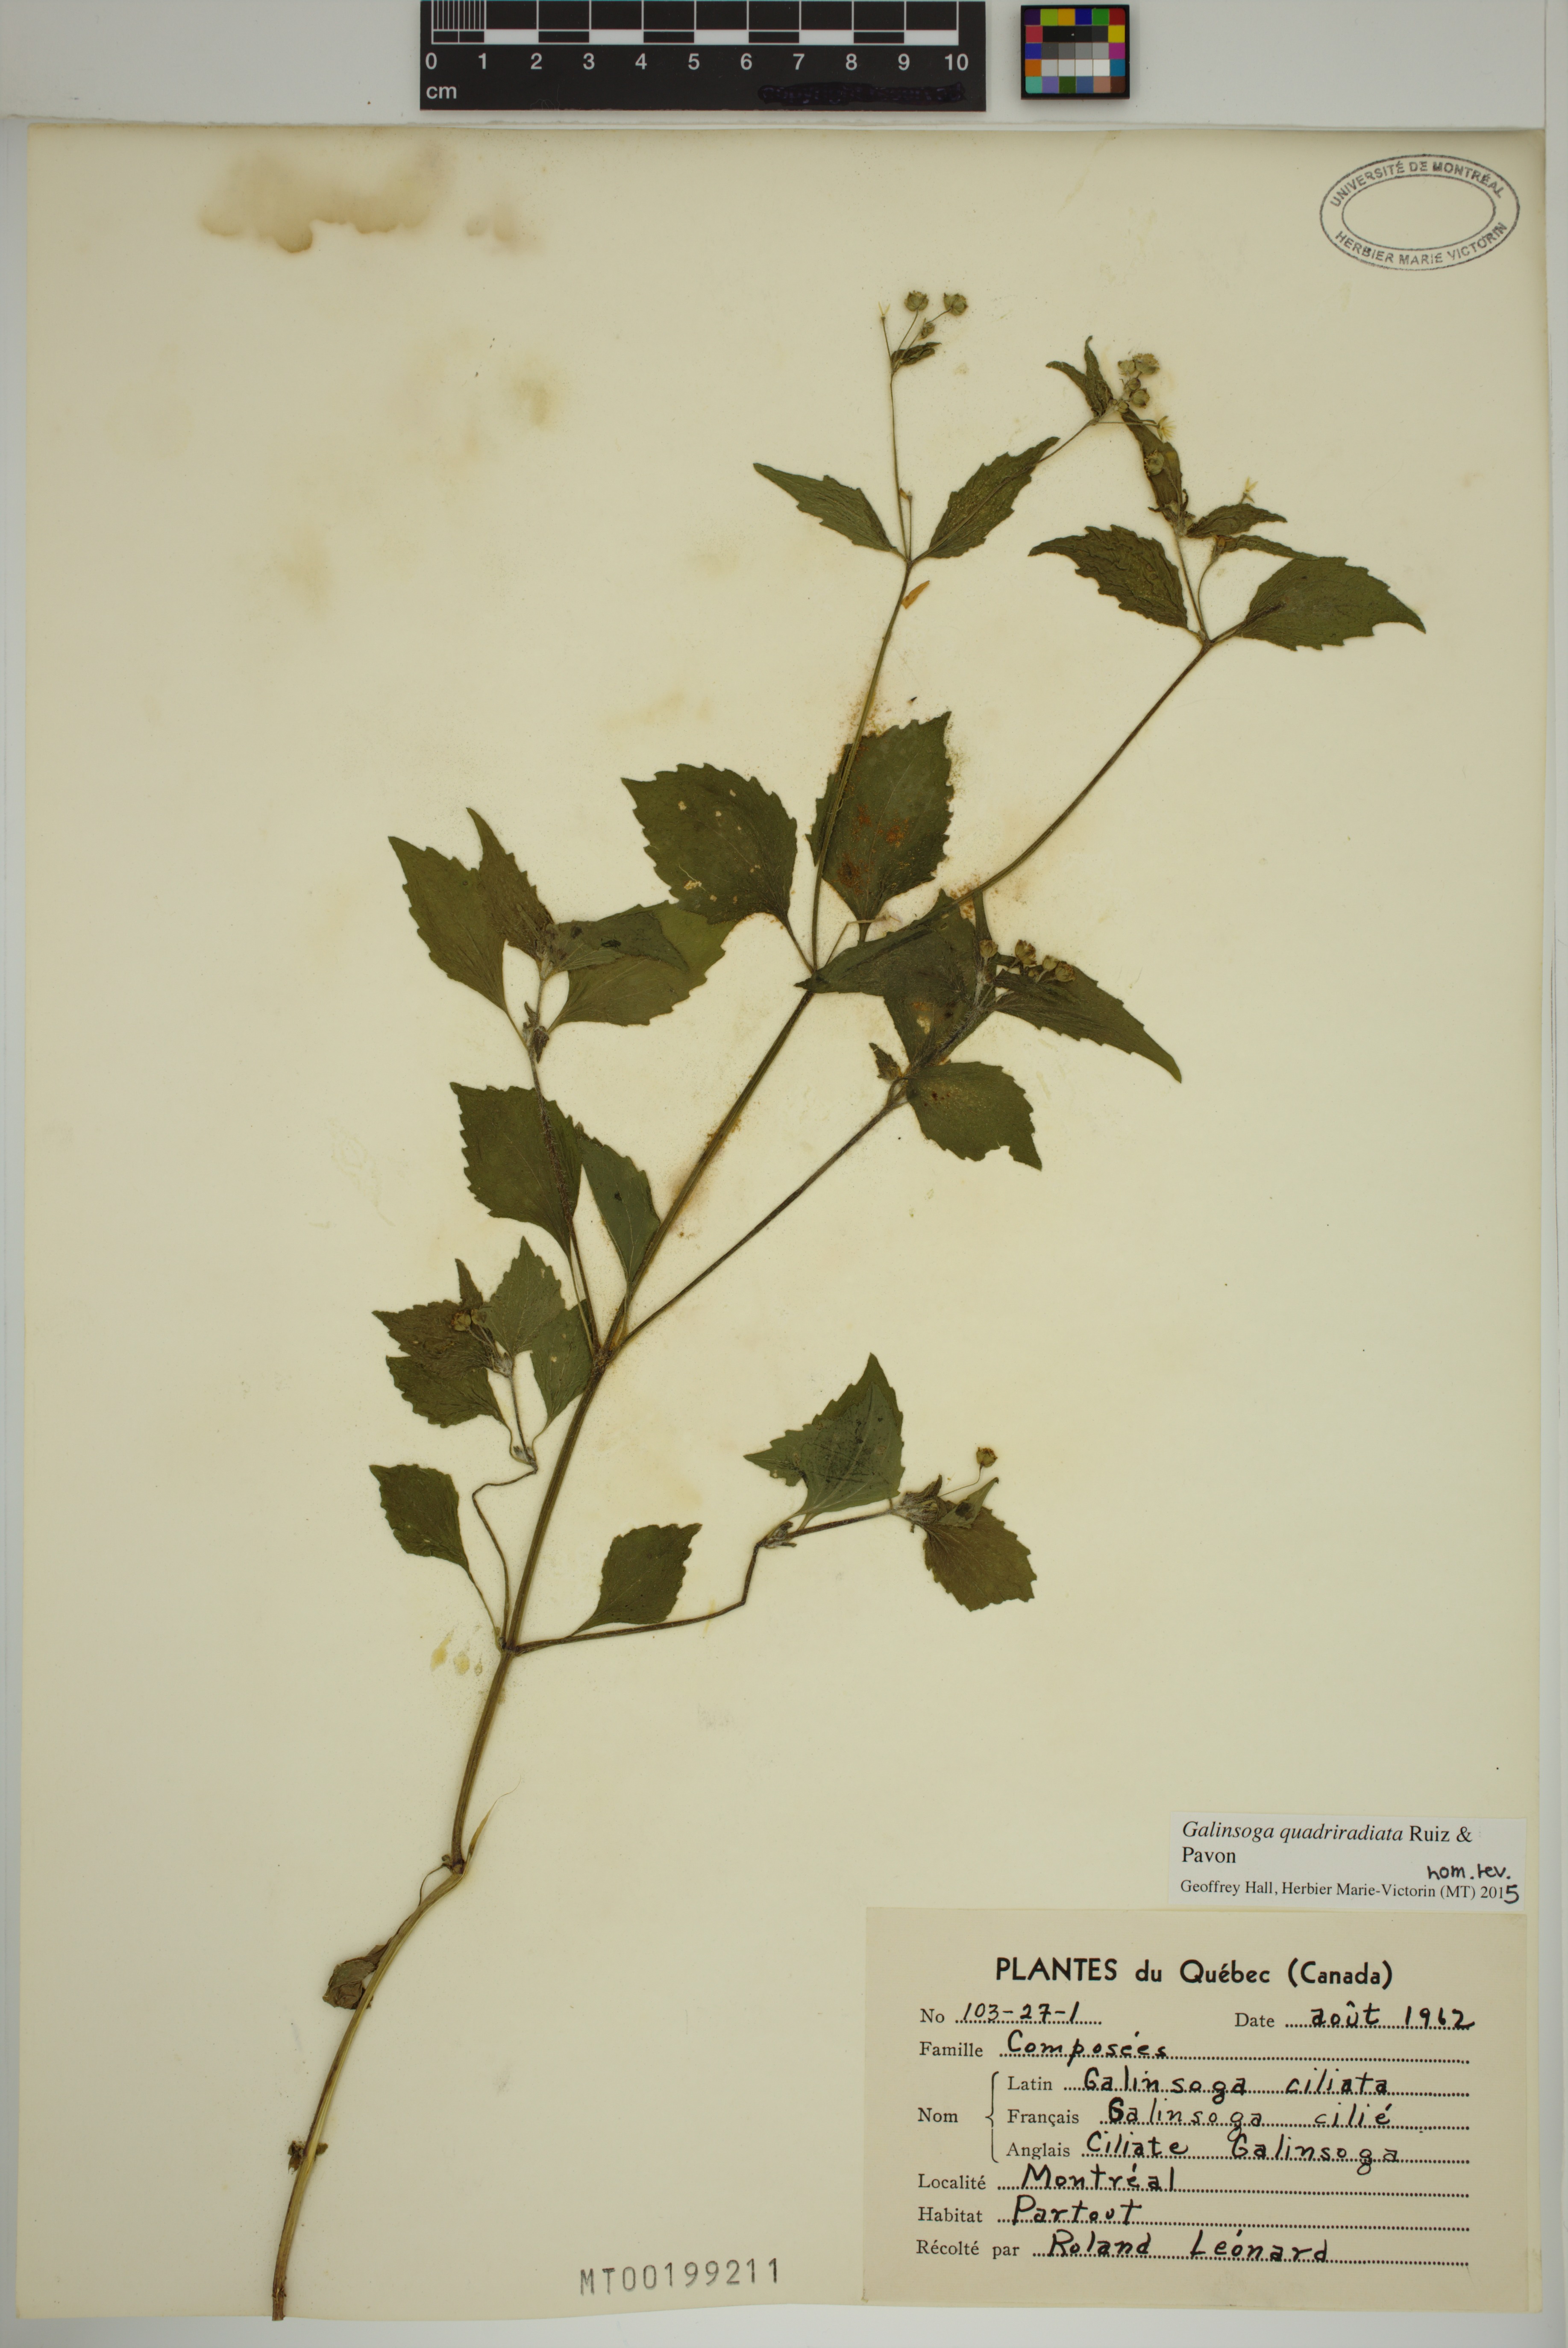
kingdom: Plantae
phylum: Tracheophyta
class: Magnoliopsida
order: Asterales
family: Asteraceae
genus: Galinsoga
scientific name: Galinsoga quadriradiata
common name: Shaggy soldier
